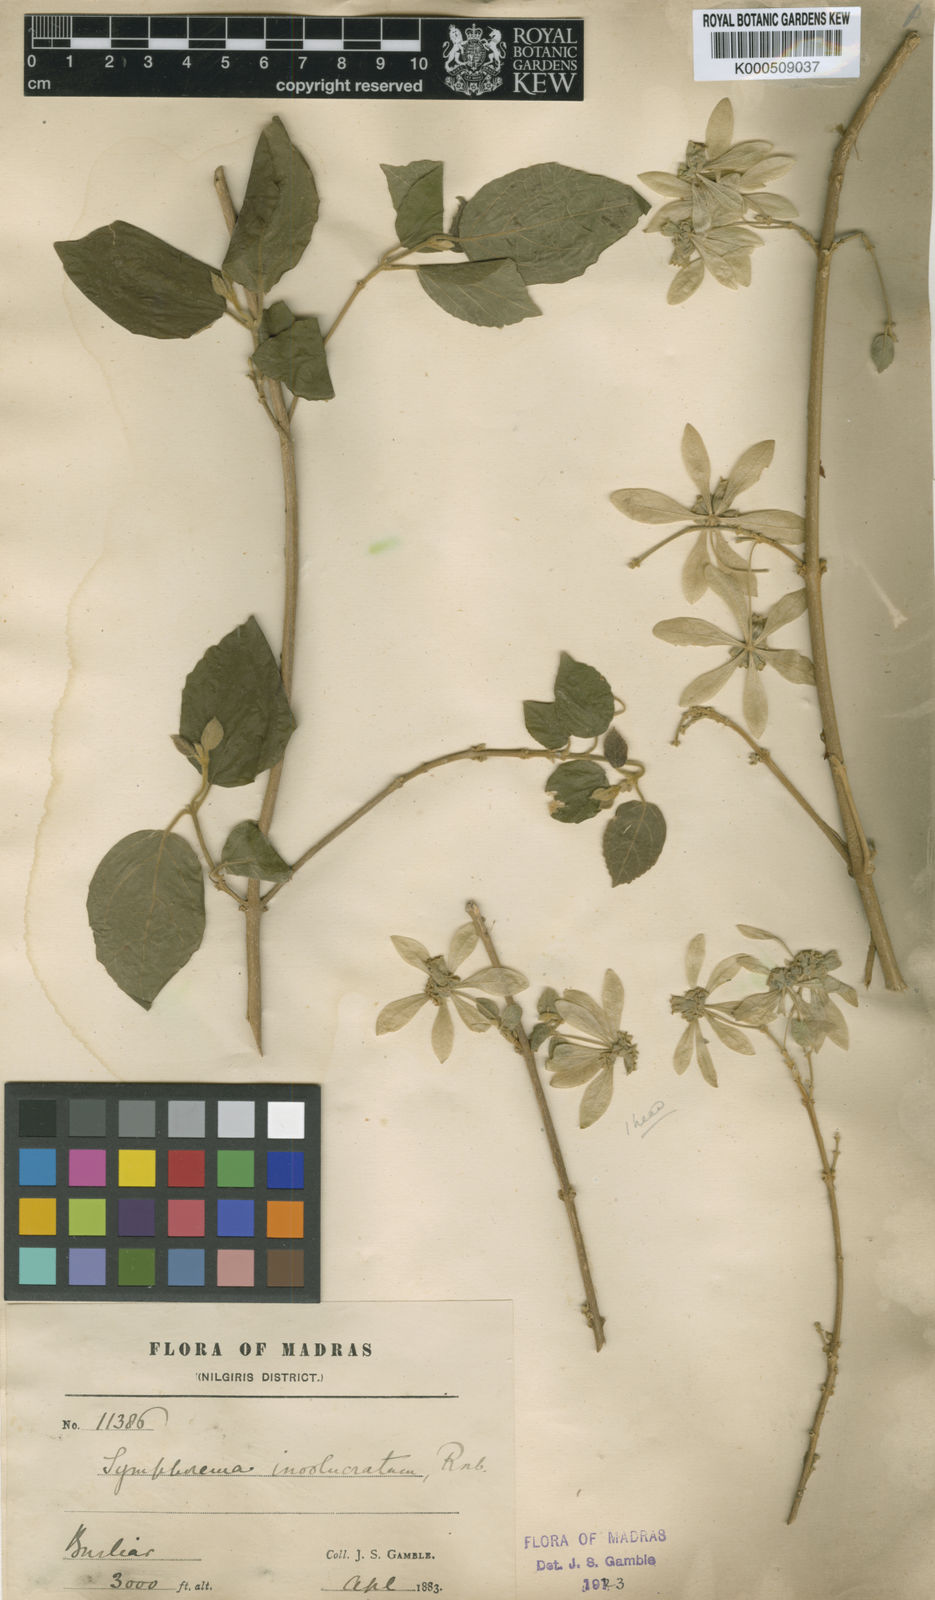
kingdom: Plantae
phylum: Tracheophyta
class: Magnoliopsida
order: Lamiales
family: Lamiaceae
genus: Symphorema
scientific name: Symphorema involucratum
